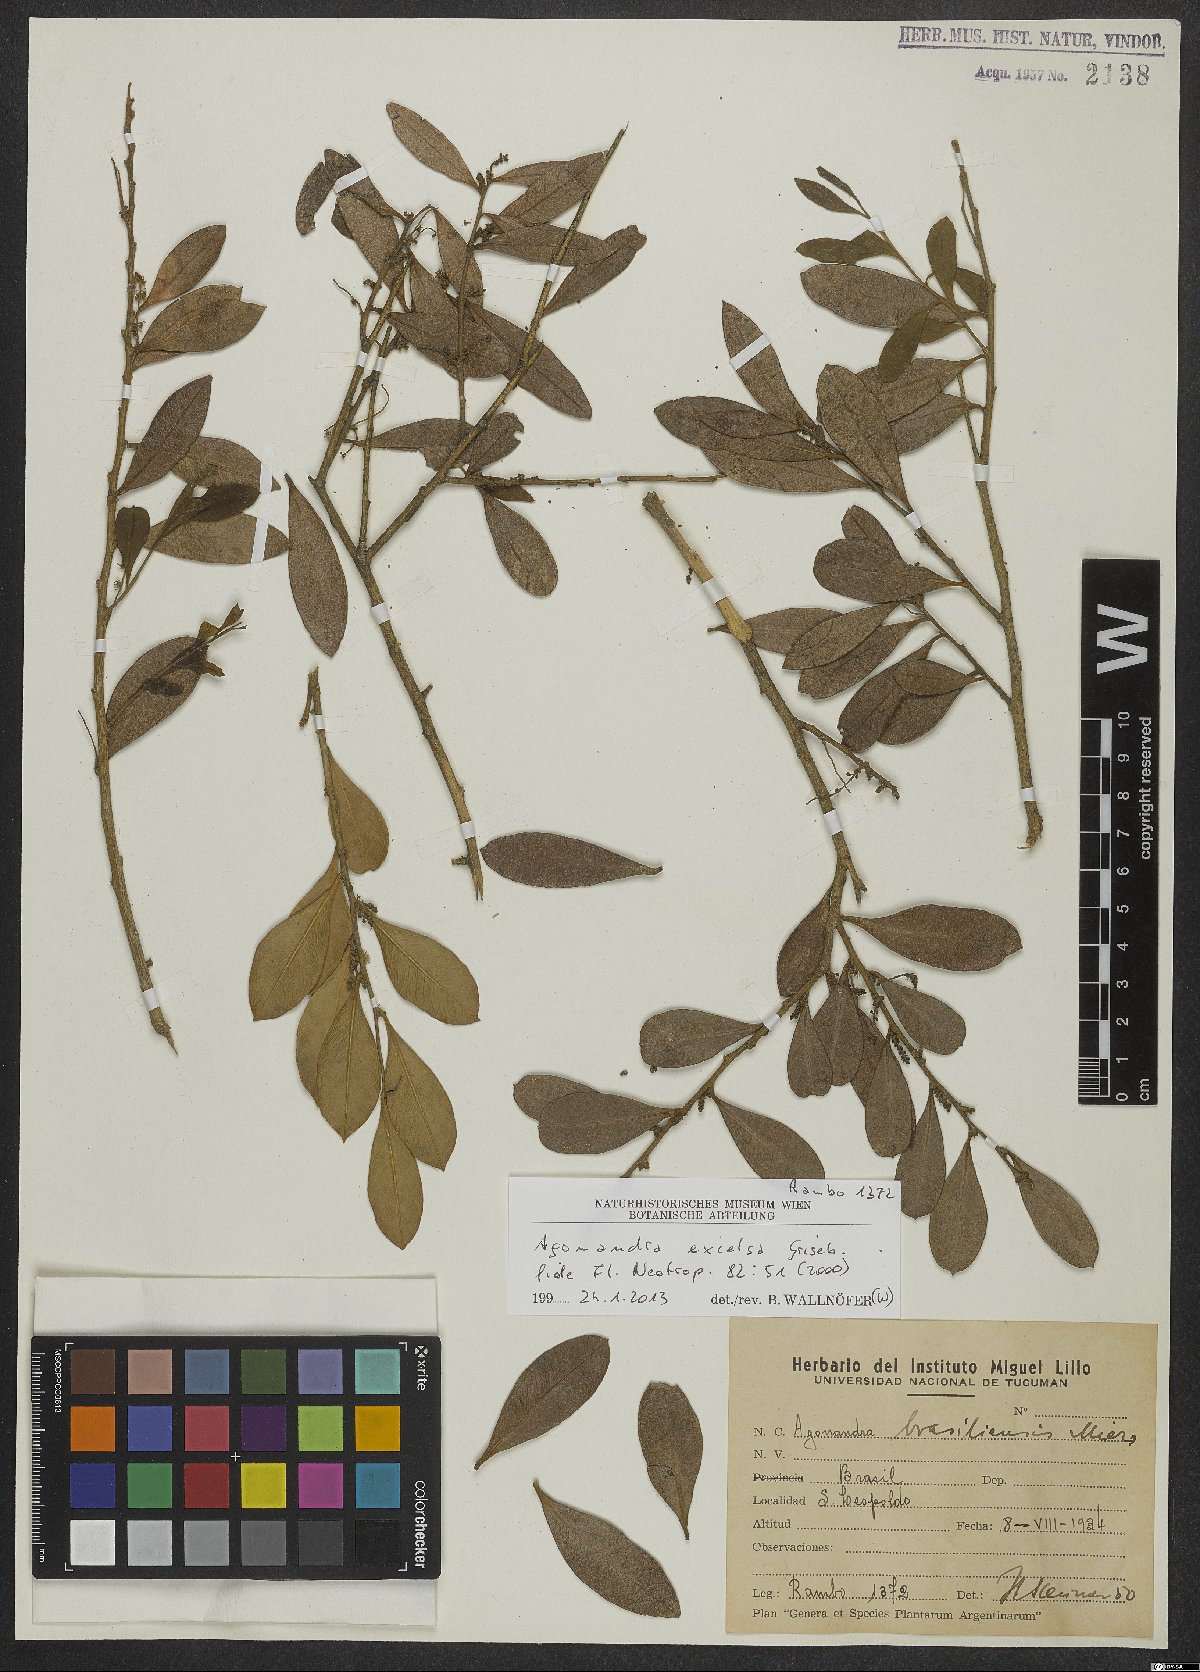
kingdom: Plantae
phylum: Tracheophyta
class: Magnoliopsida
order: Santalales
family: Opiliaceae
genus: Agonandra
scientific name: Agonandra excelsa
